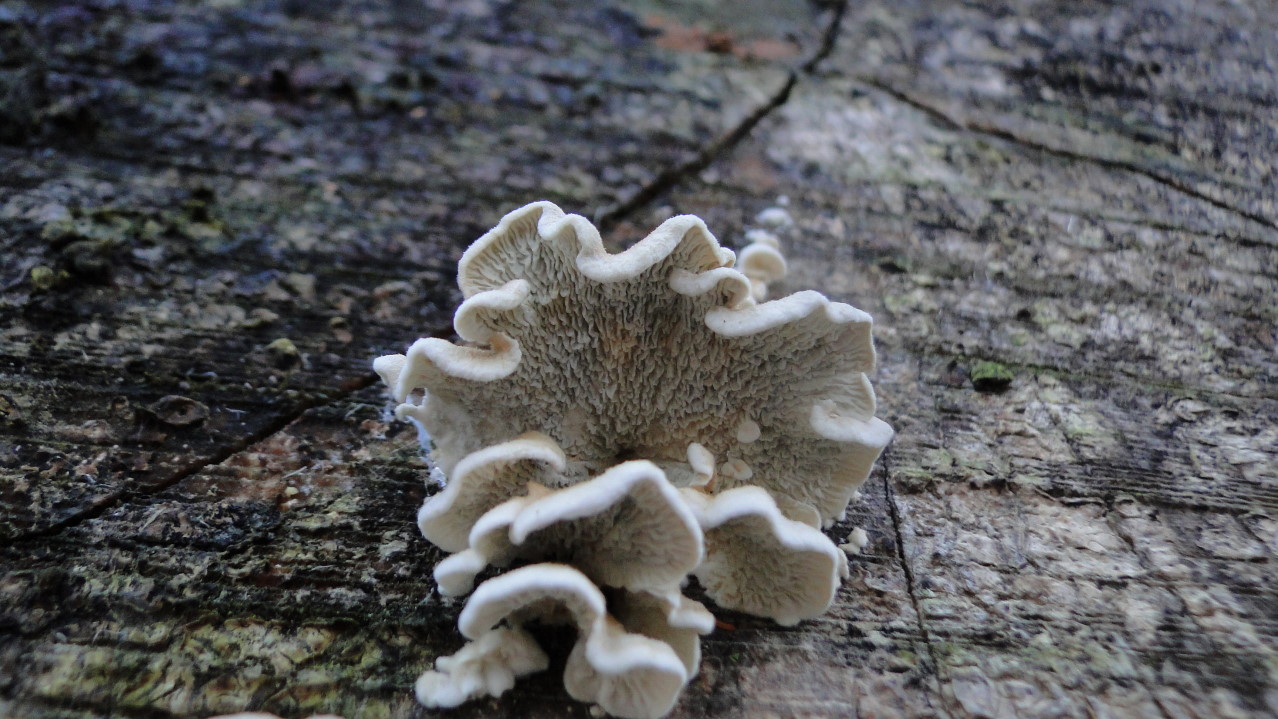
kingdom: Fungi
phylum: Basidiomycota
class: Agaricomycetes
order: Amylocorticiales
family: Amylocorticiaceae
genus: Plicaturopsis
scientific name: Plicaturopsis crispa
